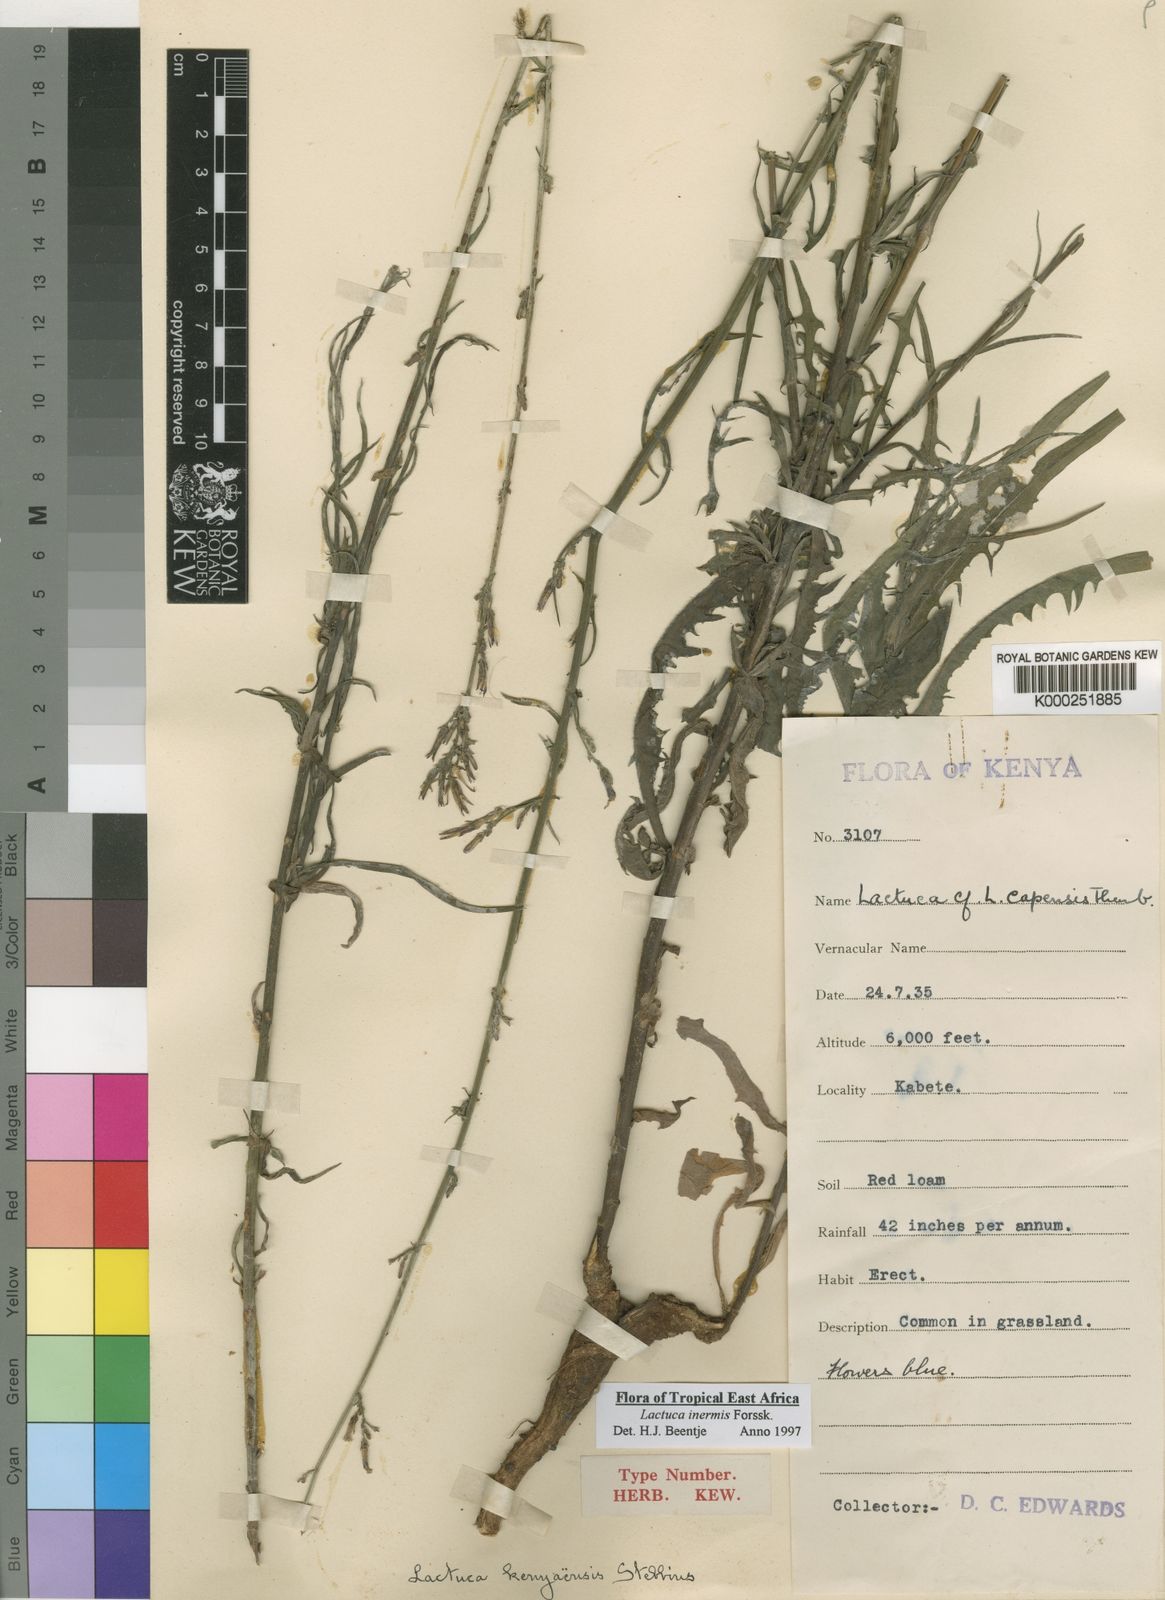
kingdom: Plantae
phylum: Tracheophyta
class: Magnoliopsida
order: Asterales
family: Asteraceae
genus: Lactuca
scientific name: Lactuca inermis
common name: Wild lettuce
